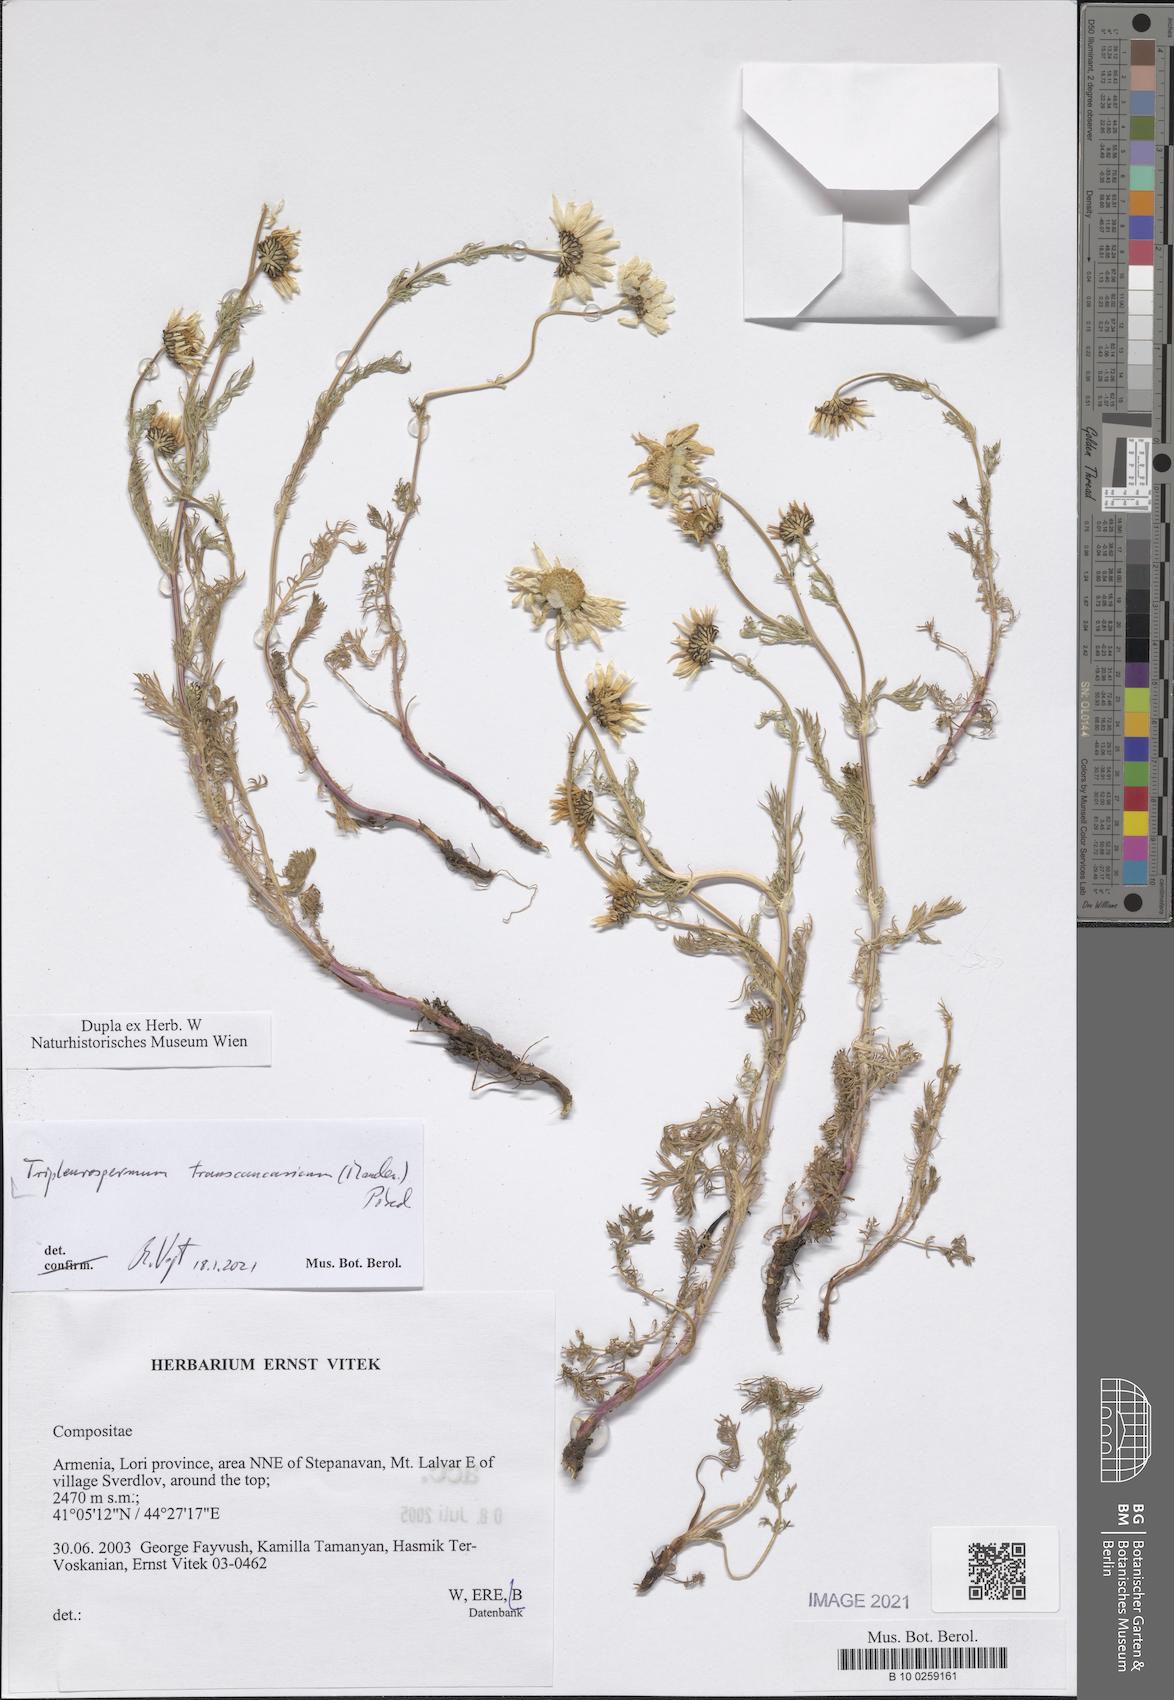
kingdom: Plantae
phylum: Tracheophyta
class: Magnoliopsida
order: Asterales
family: Asteraceae
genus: Tripleurospermum
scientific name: Tripleurospermum transcaucasicum
